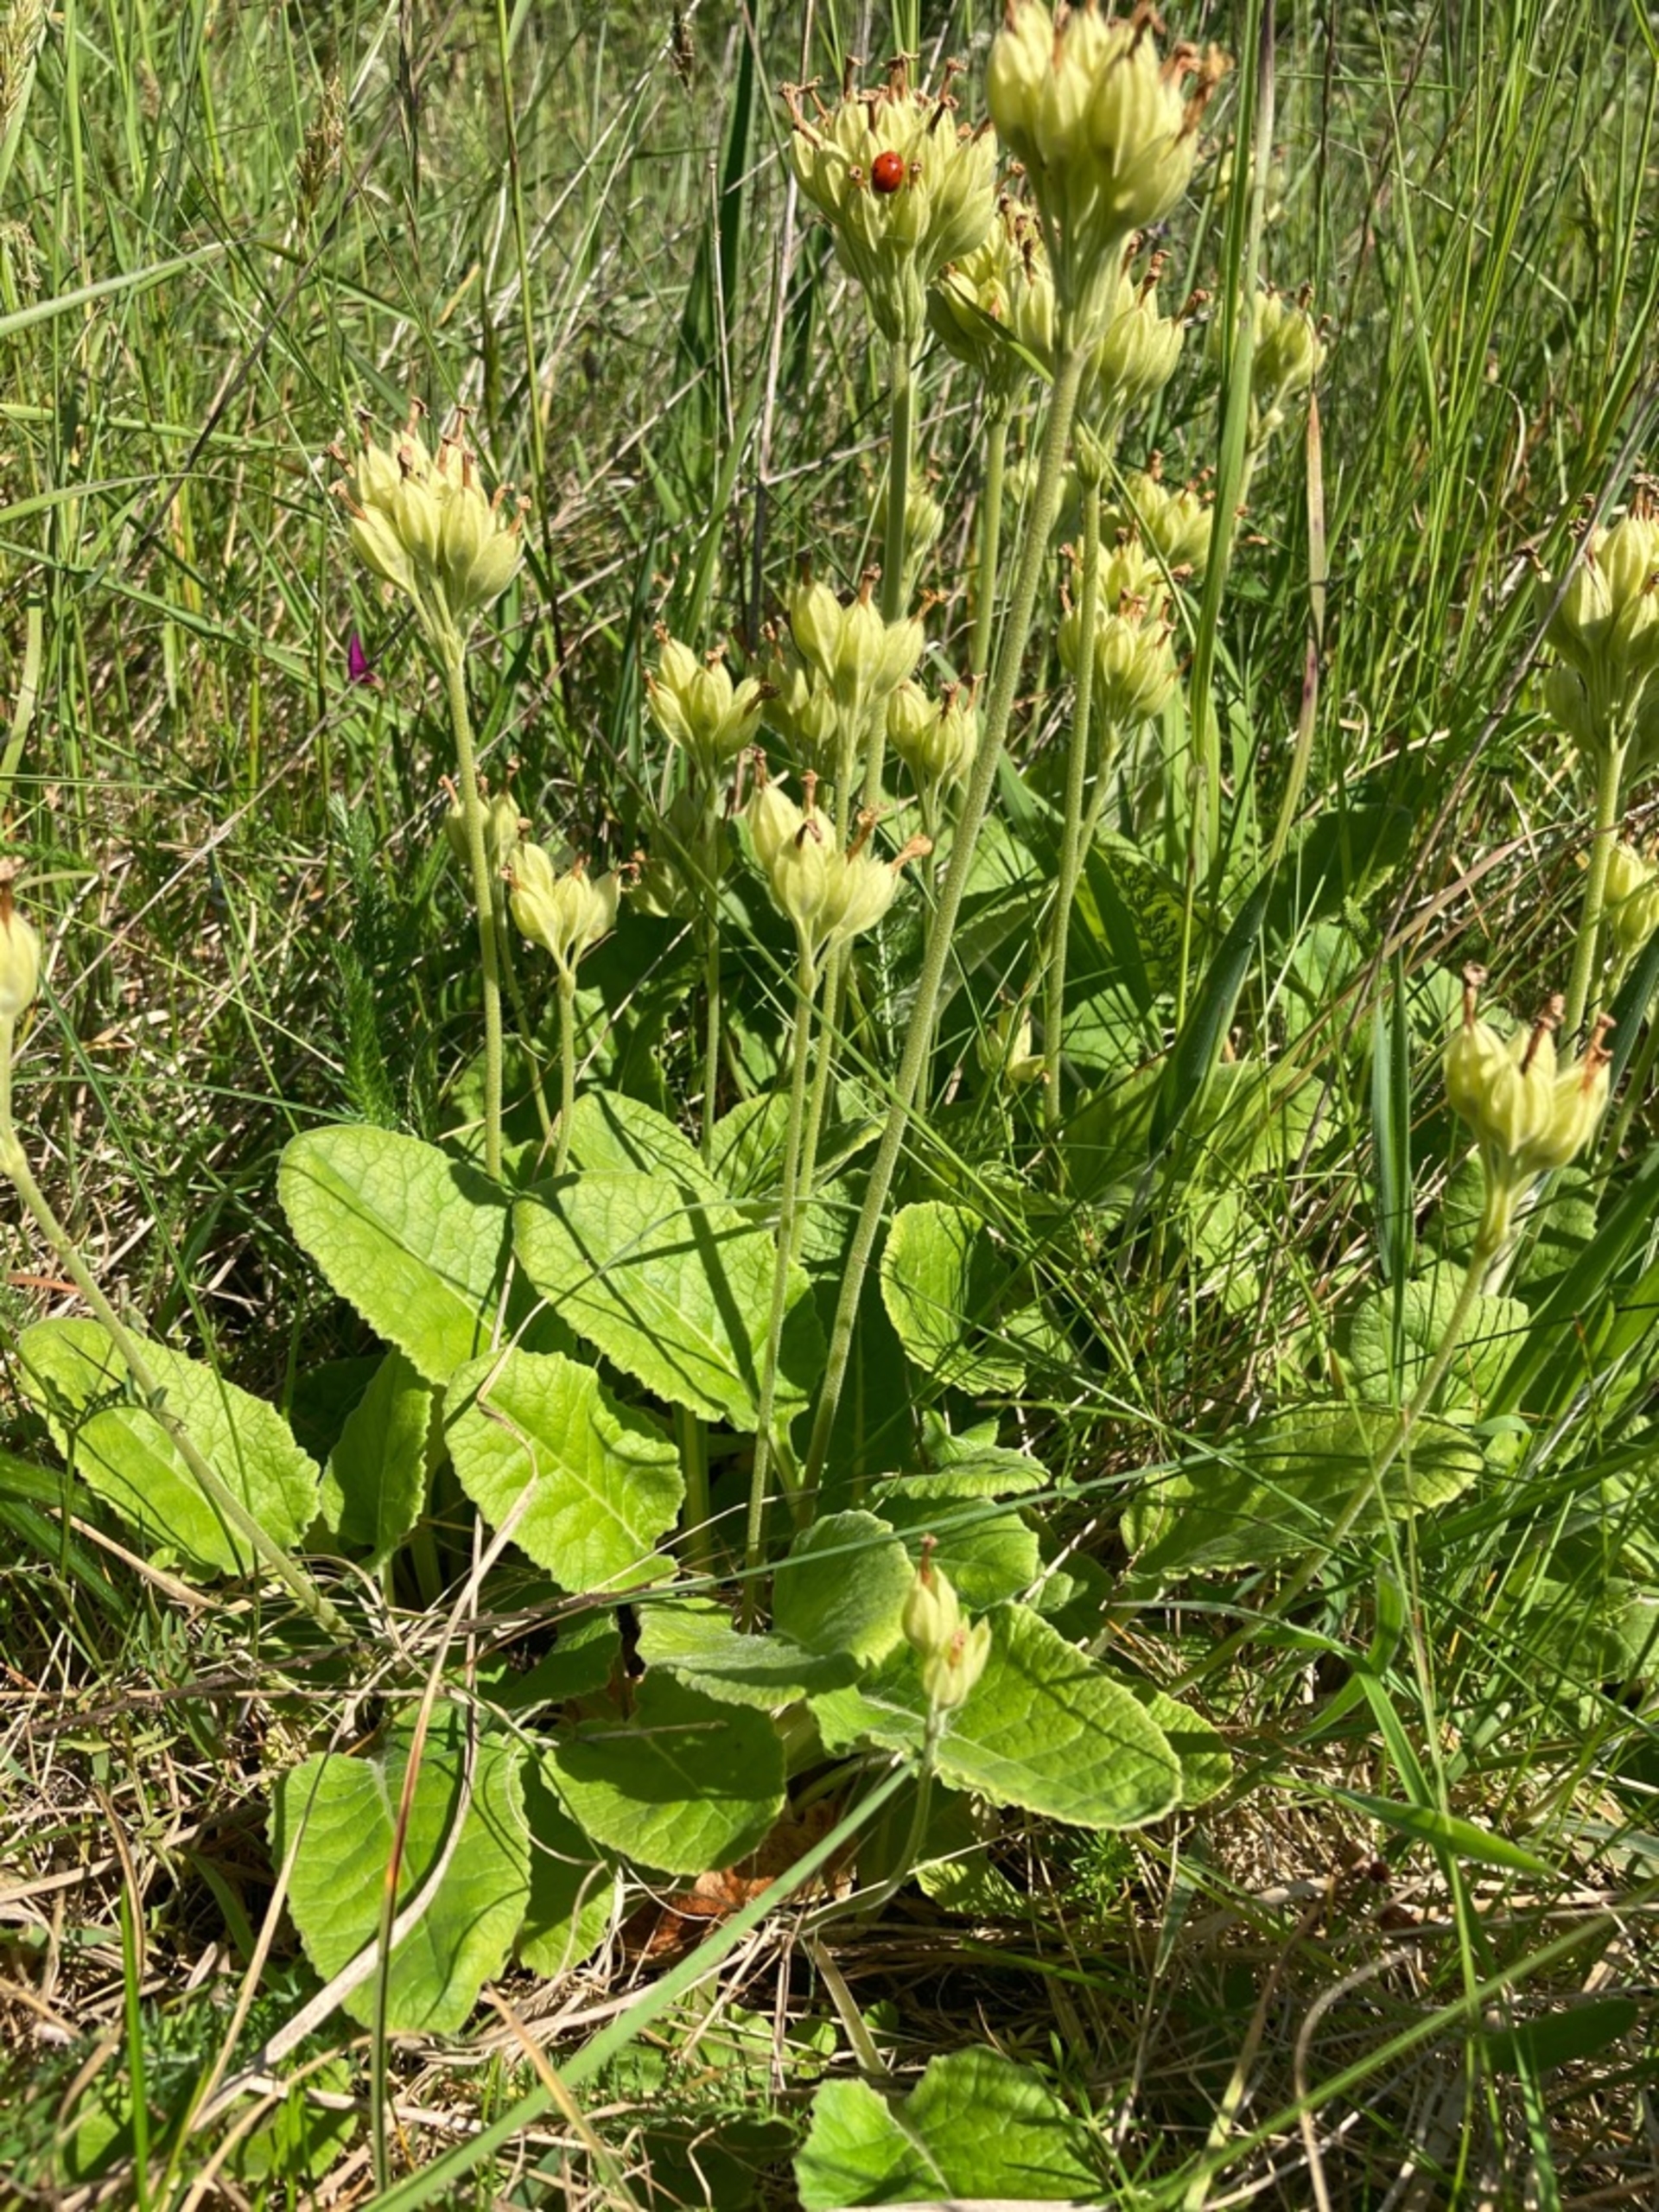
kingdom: Plantae
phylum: Tracheophyta
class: Magnoliopsida
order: Ericales
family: Primulaceae
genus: Primula
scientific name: Primula veris
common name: Hulkravet kodriver
